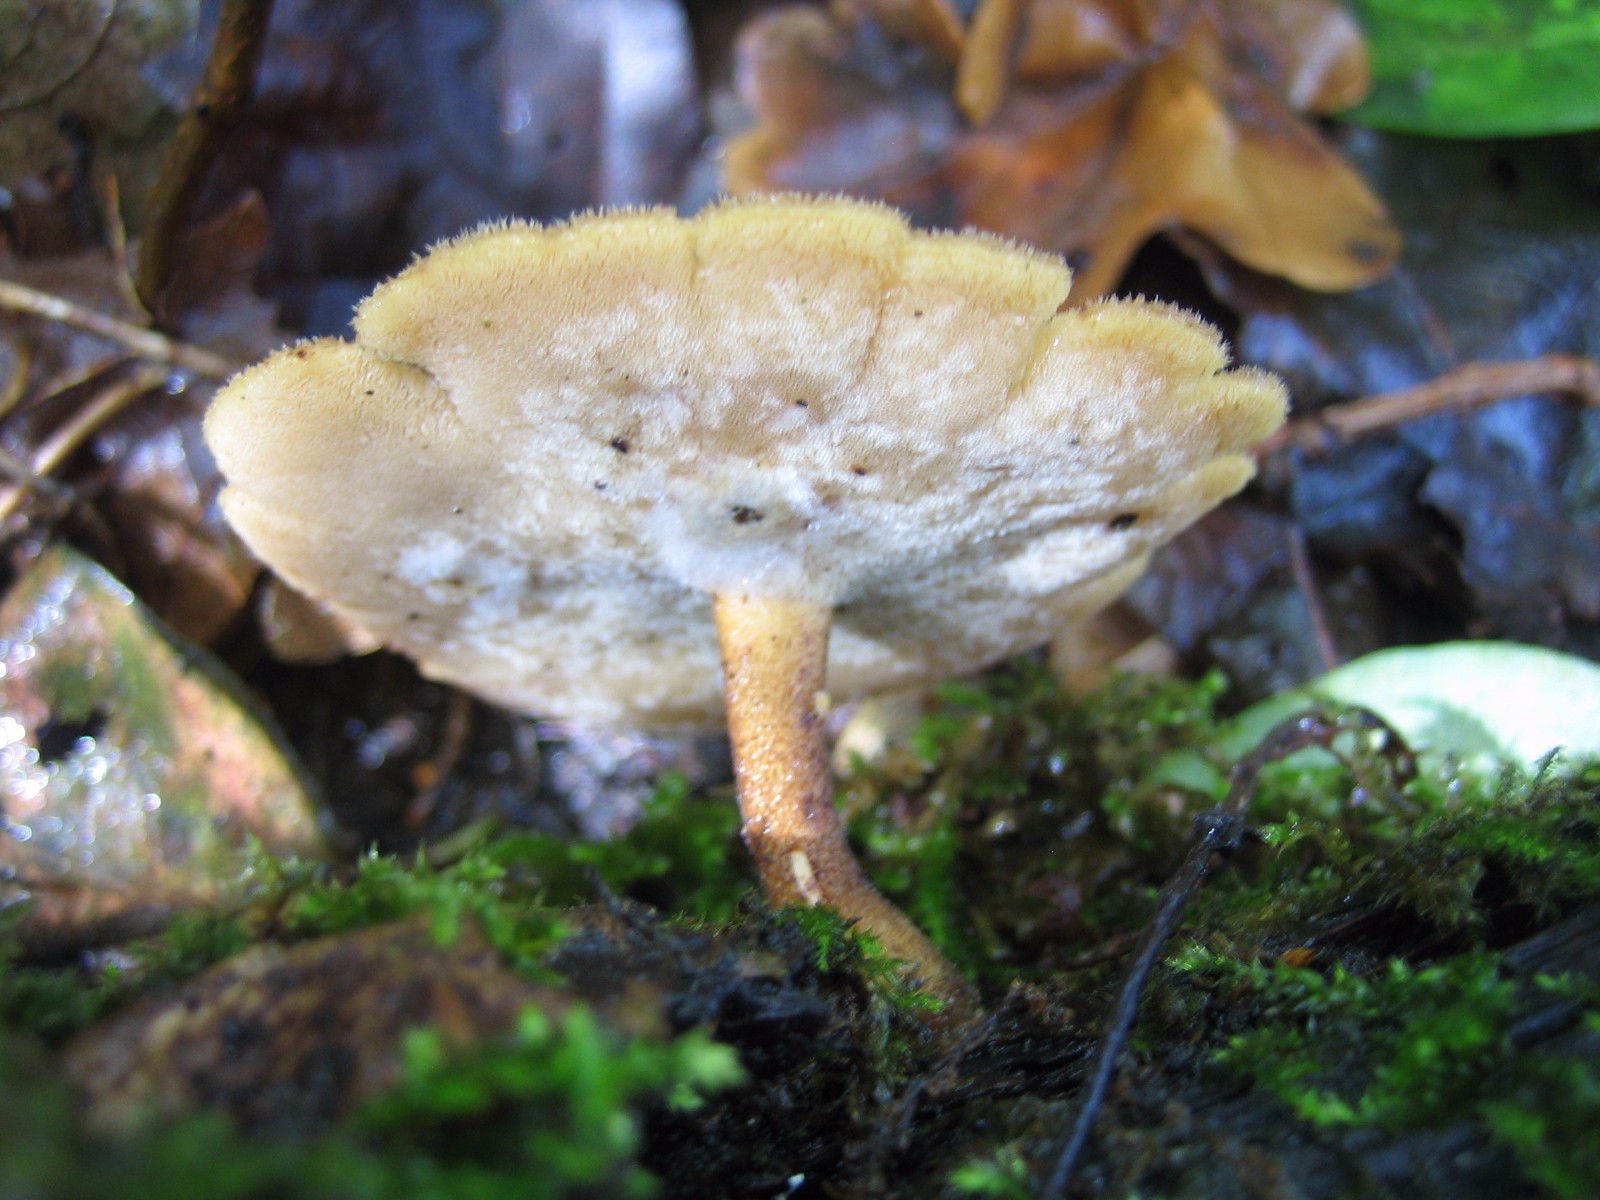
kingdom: Fungi
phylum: Basidiomycota
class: Agaricomycetes
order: Polyporales
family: Polyporaceae
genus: Cerioporus
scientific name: Cerioporus varius
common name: foranderlig stilkporesvamp
